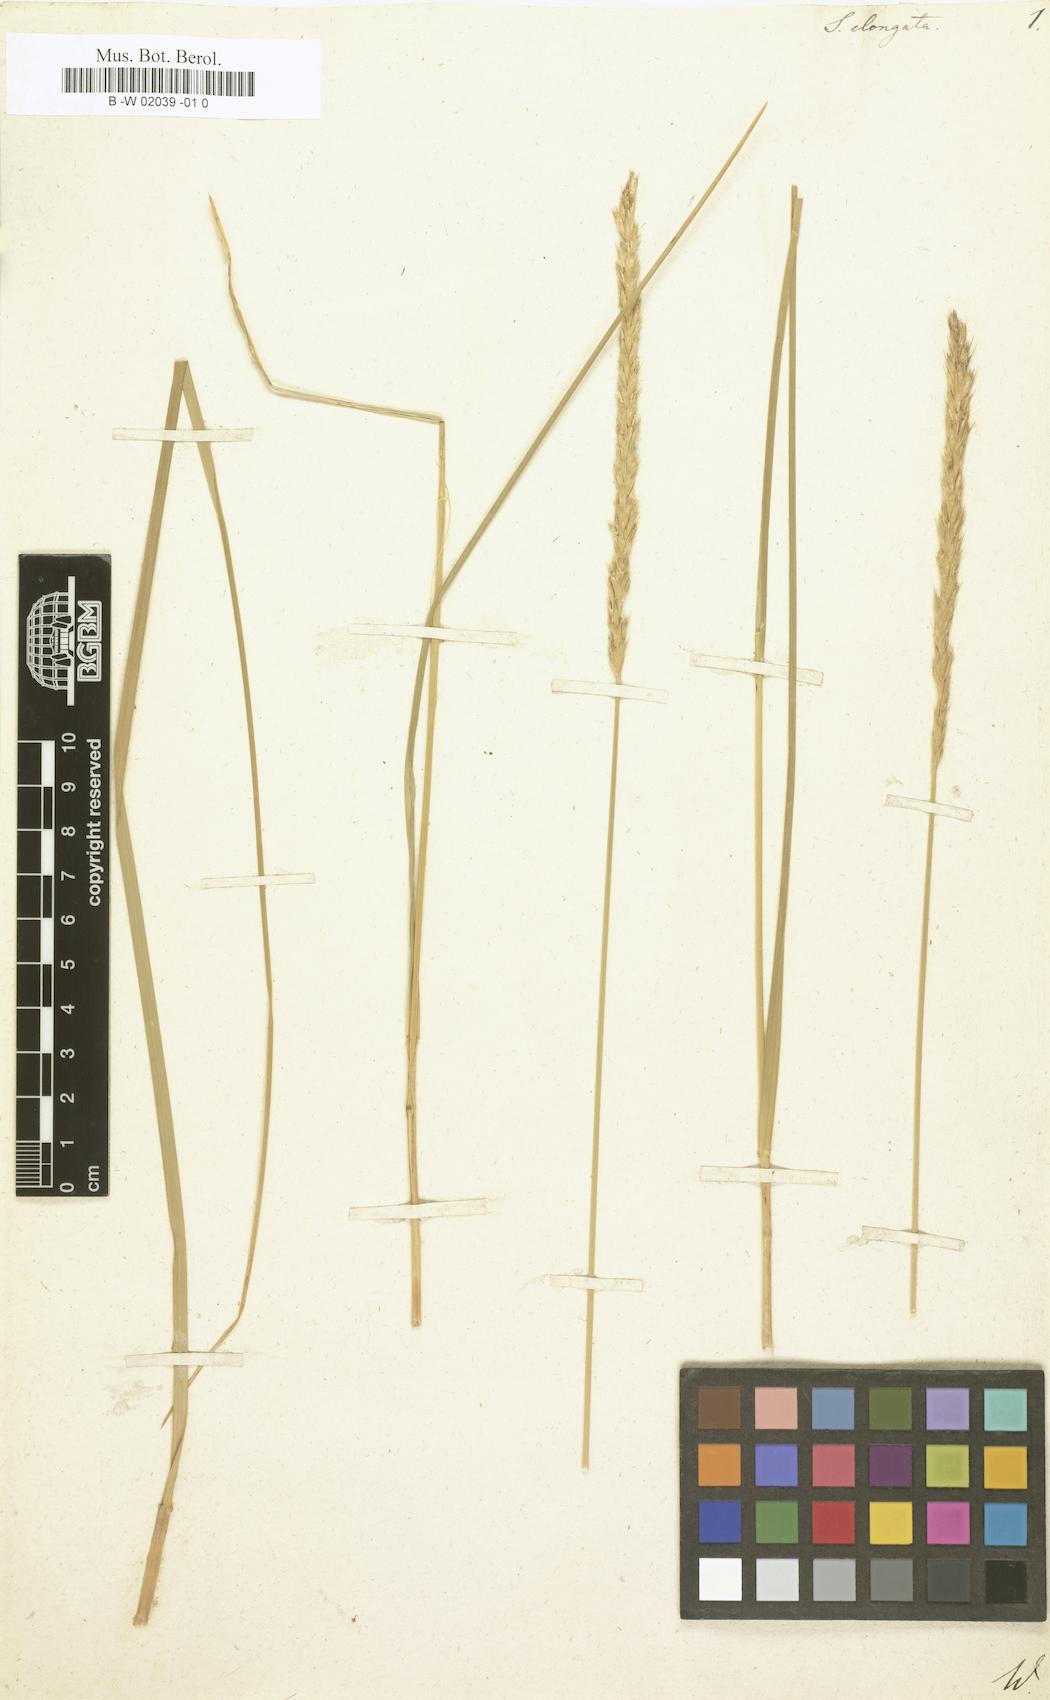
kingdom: Plantae
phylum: Tracheophyta
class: Liliopsida
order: Poales
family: Poaceae
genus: Sesleria
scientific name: Sesleria autumnalis
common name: Autumn moor grass
